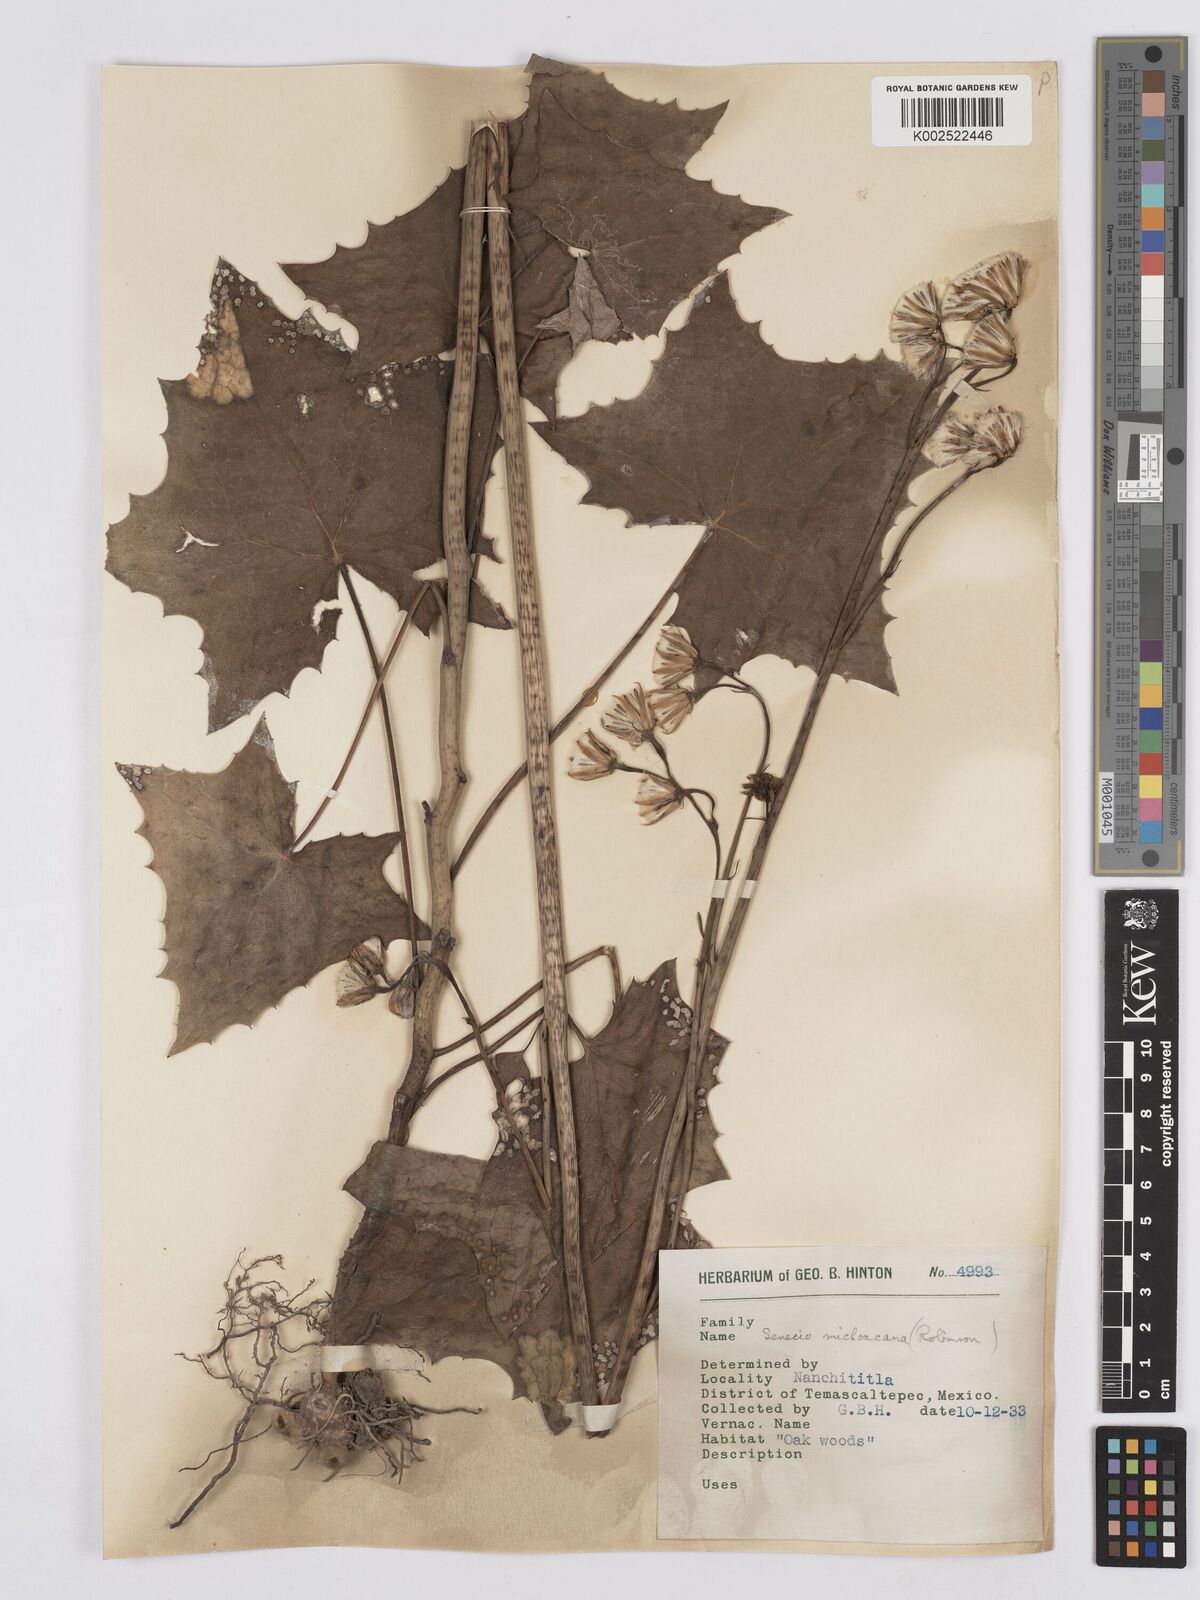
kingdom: Plantae
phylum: Tracheophyta
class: Magnoliopsida
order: Asterales
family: Asteraceae
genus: Roldana
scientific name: Roldana michoacana
